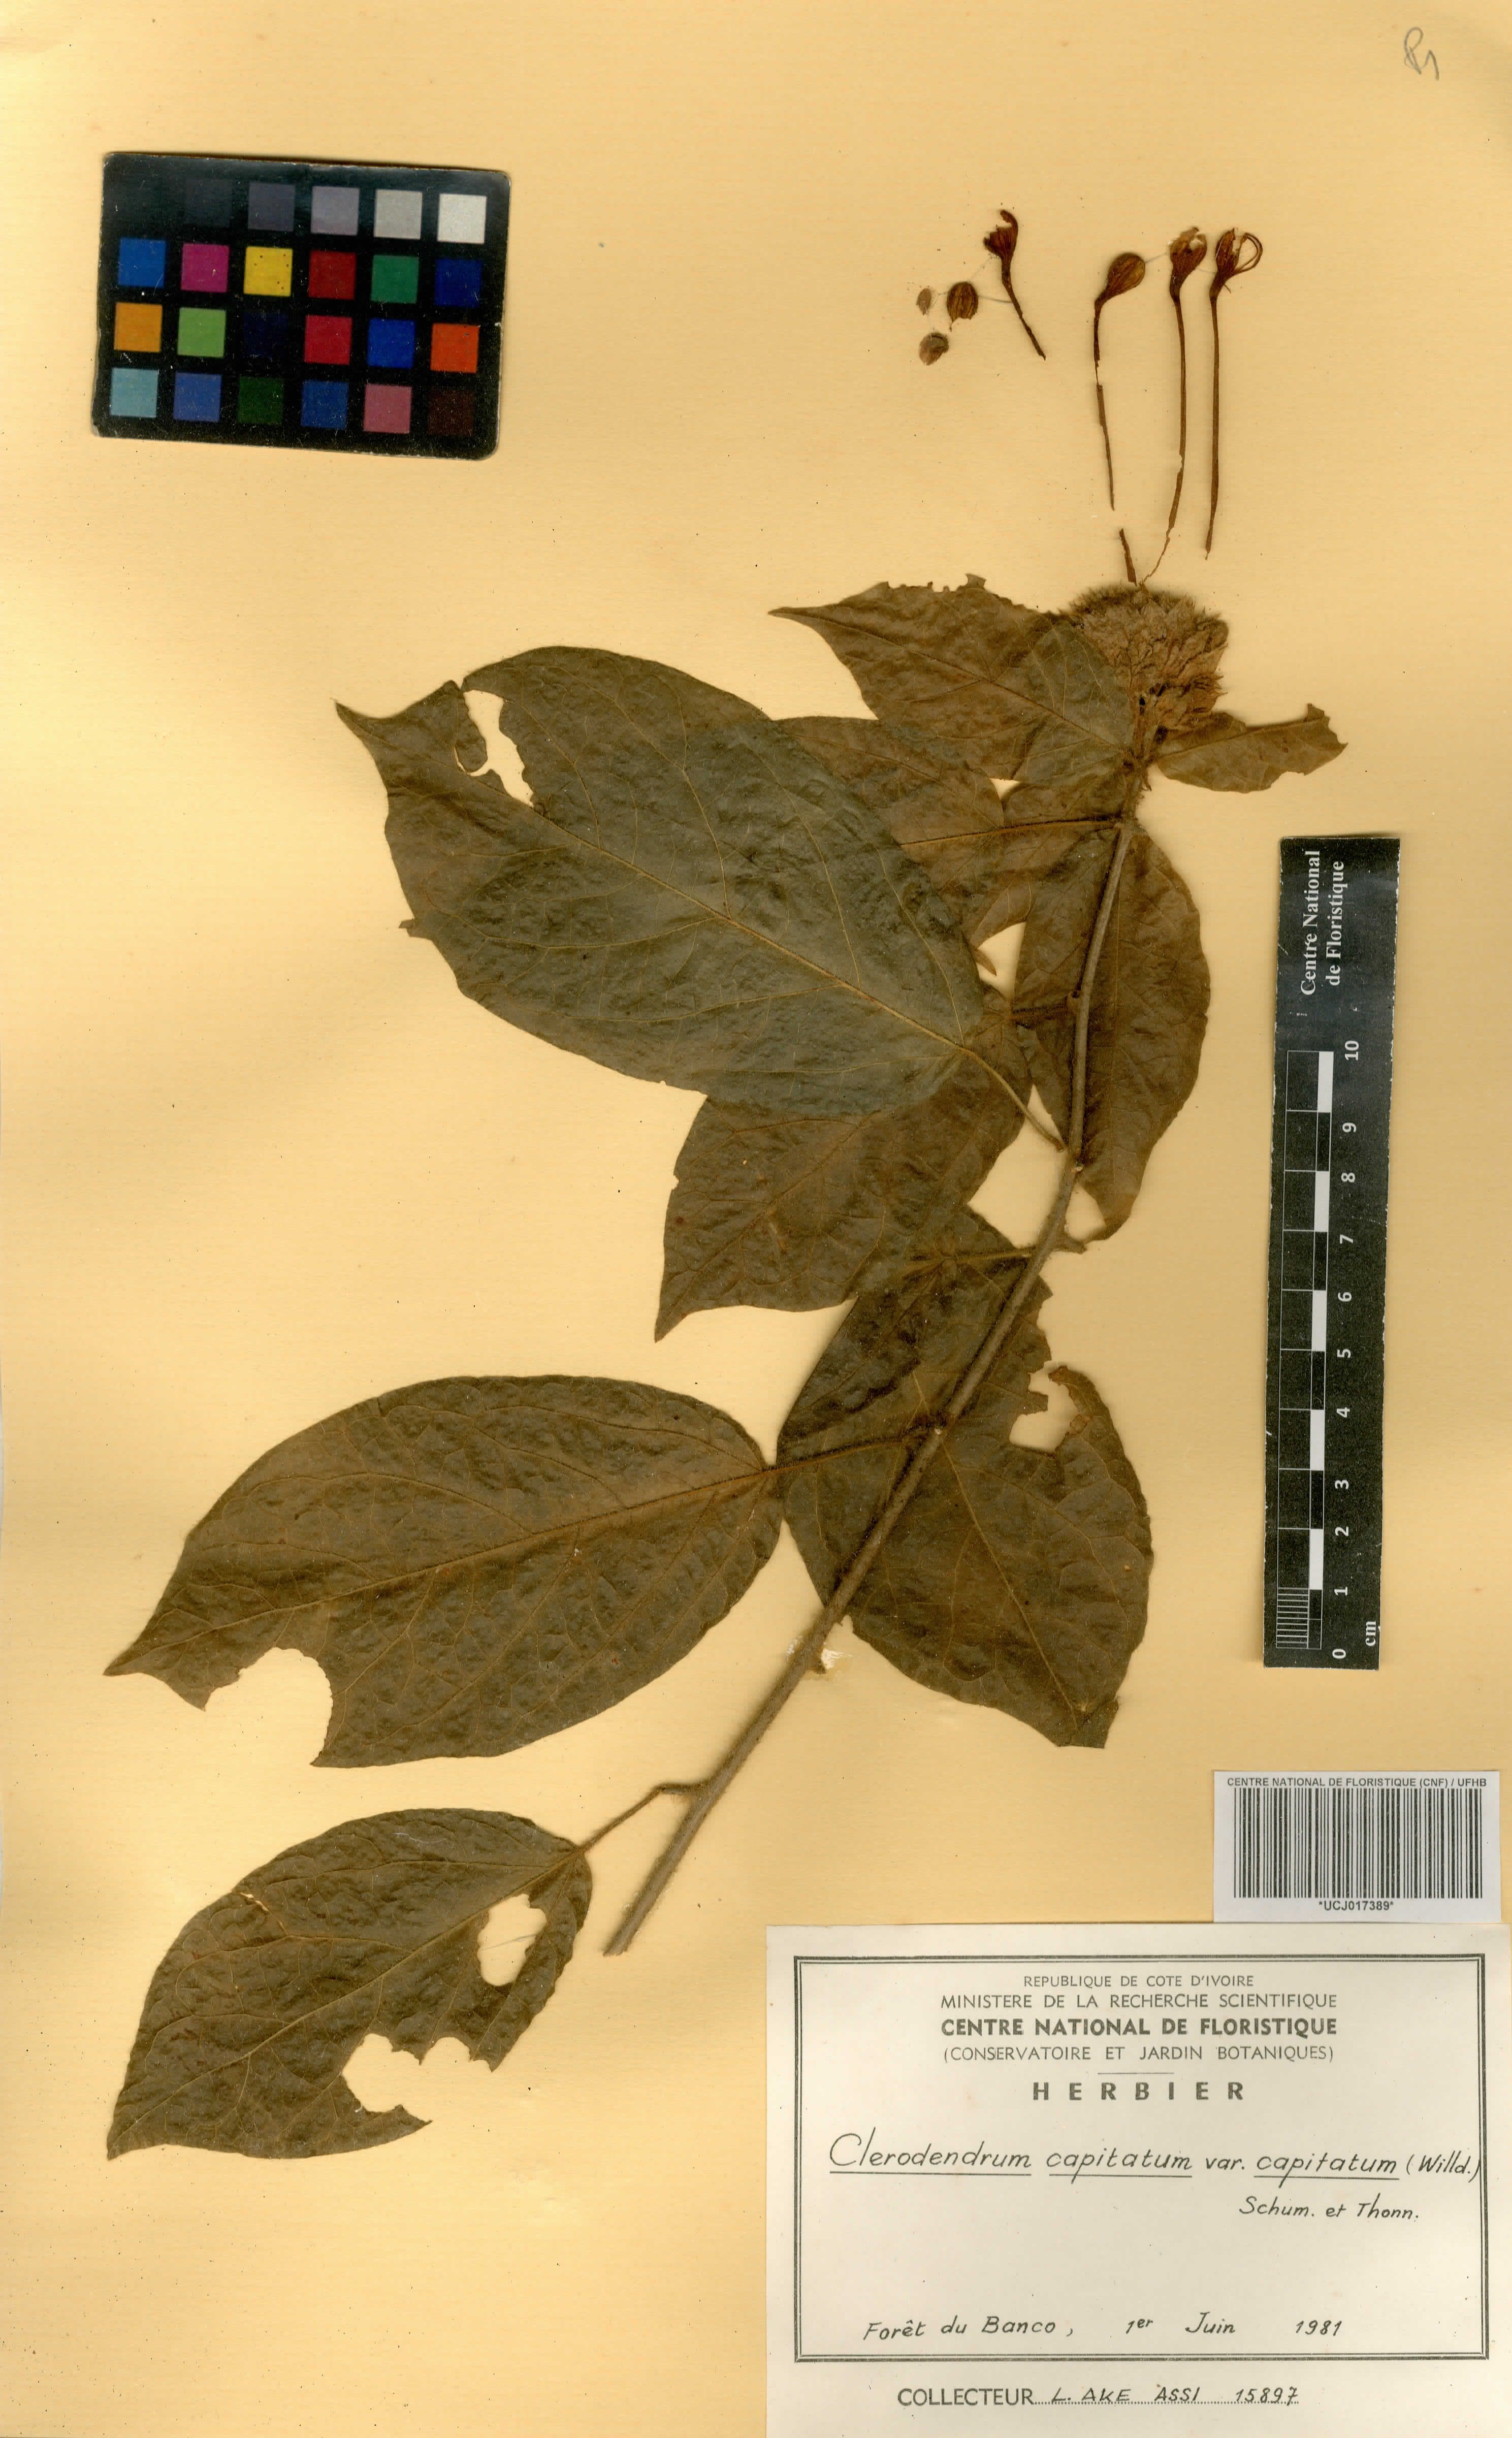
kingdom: Plantae
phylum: Tracheophyta
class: Magnoliopsida
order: Lamiales
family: Lamiaceae
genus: Clerodendrum
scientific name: Clerodendrum capitatum
